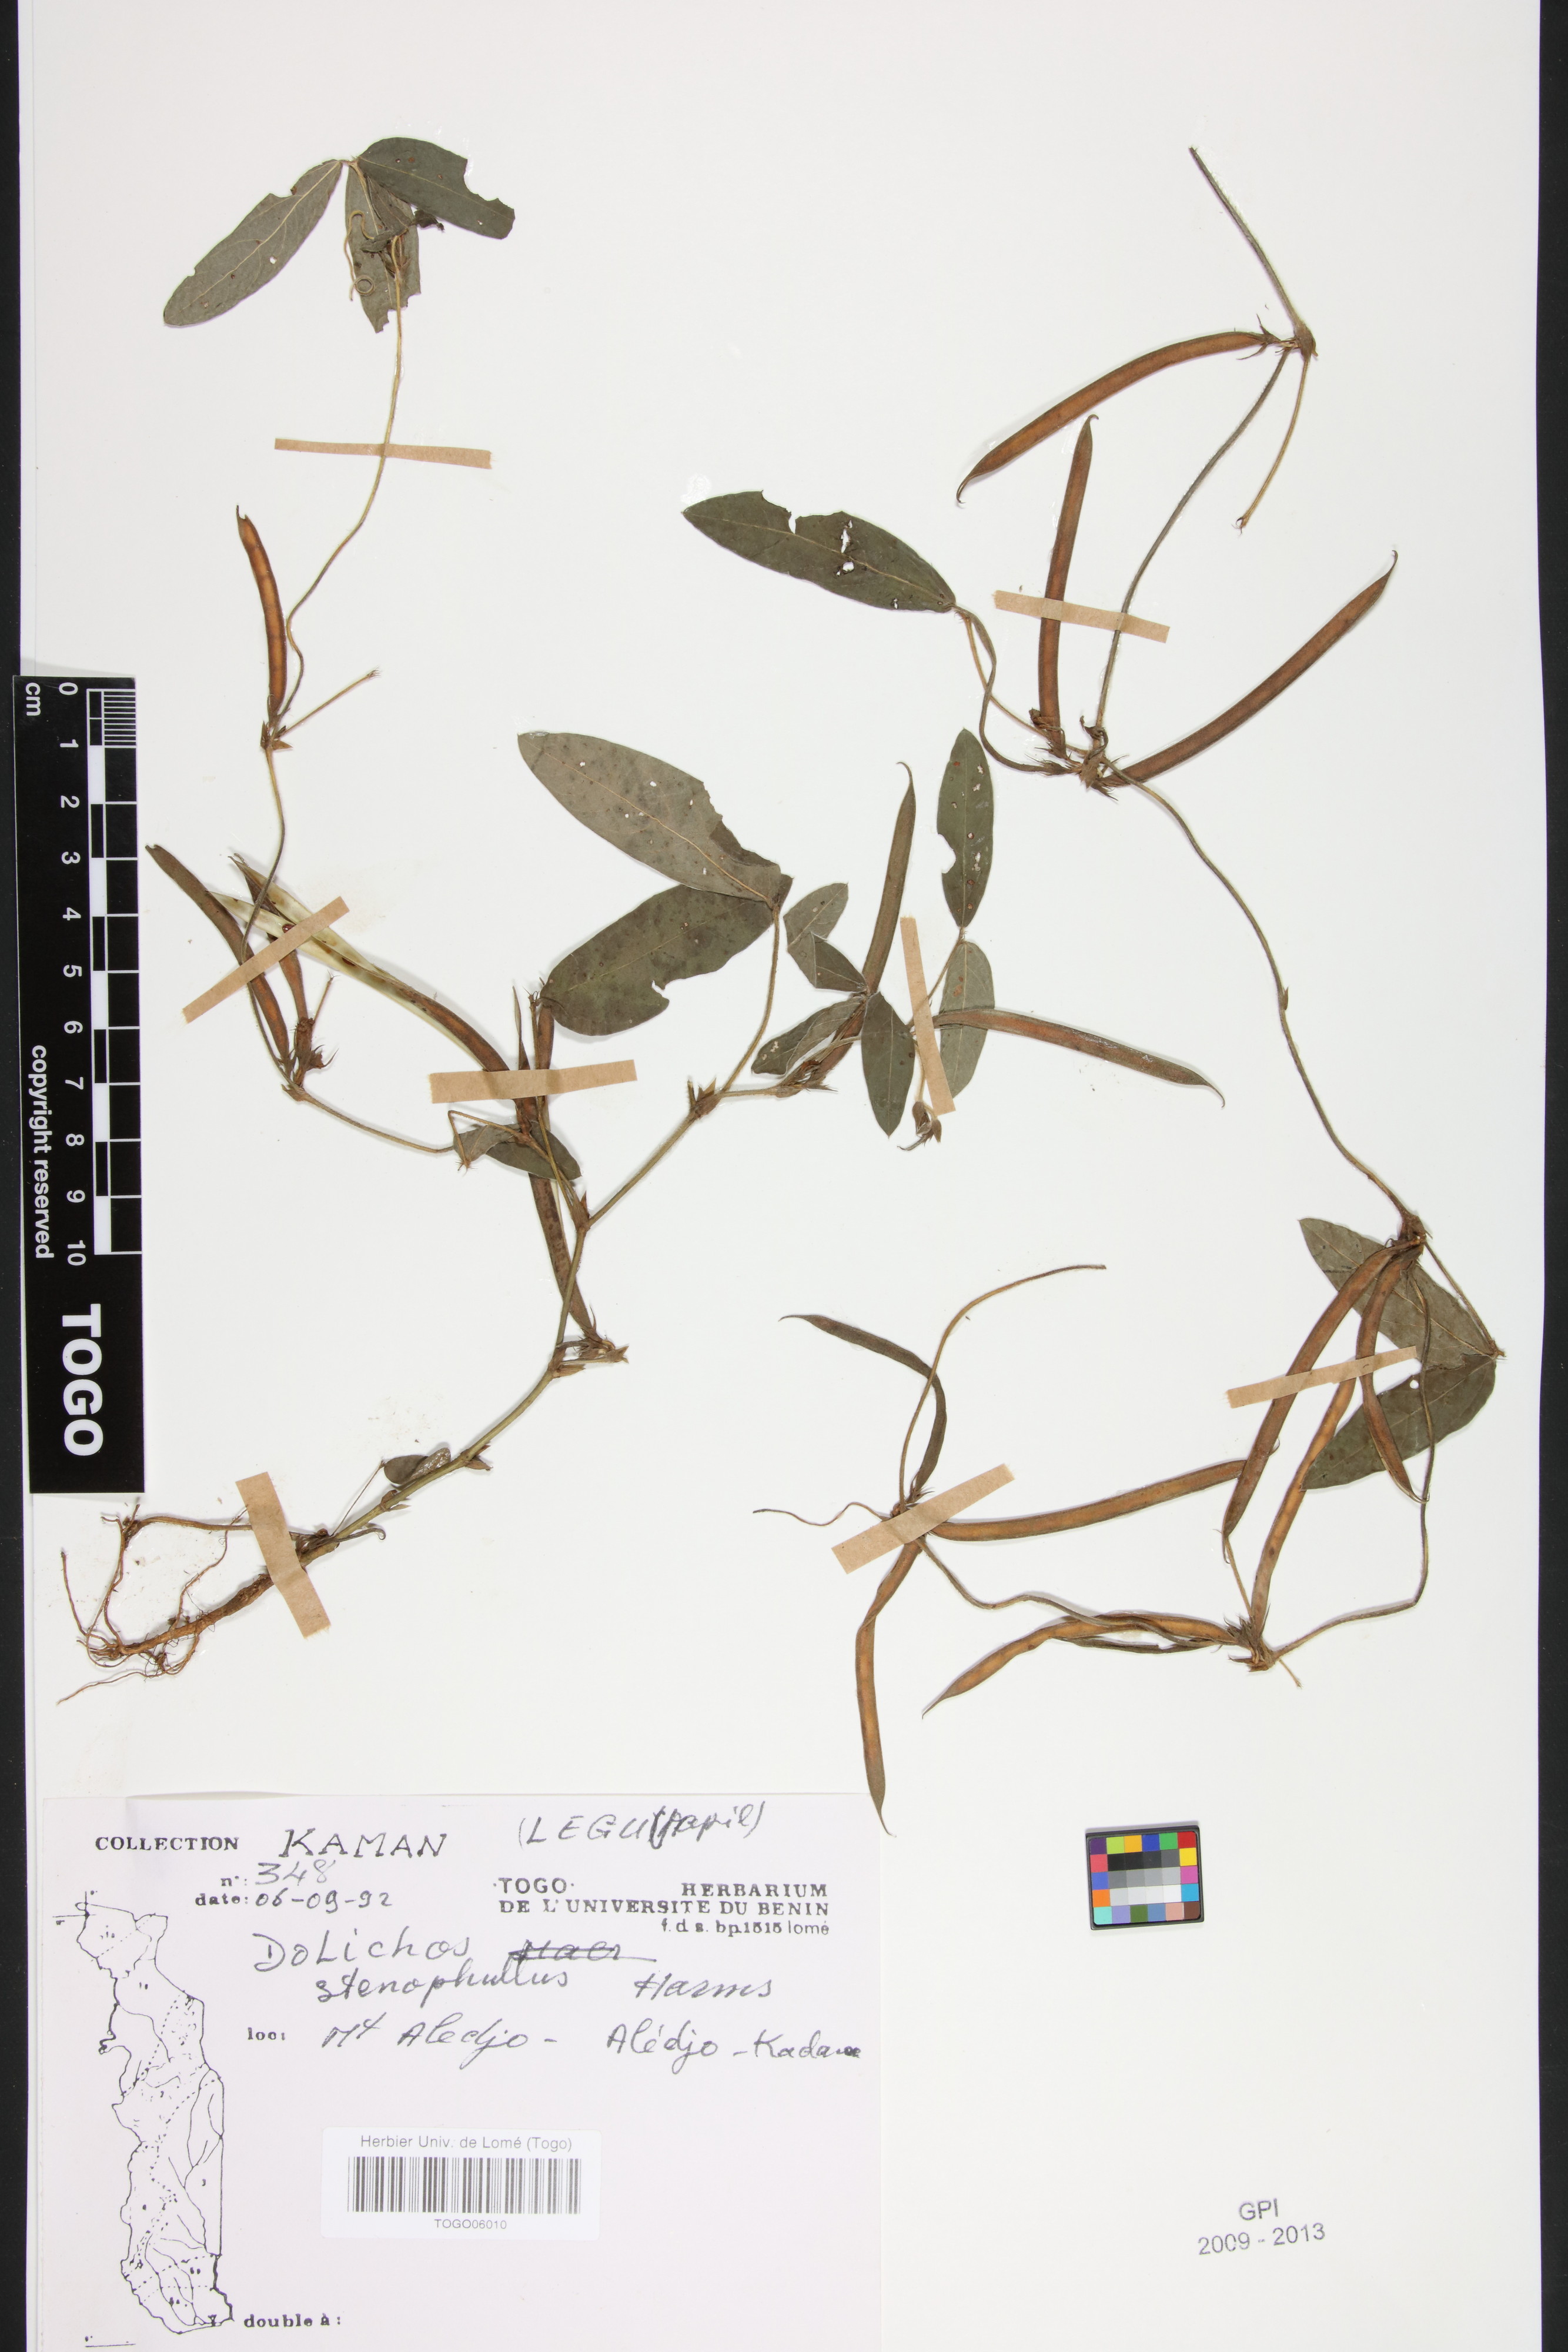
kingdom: Plantae
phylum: Tracheophyta
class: Magnoliopsida
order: Fabales
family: Fabaceae
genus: Macrotyloma
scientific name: Macrotyloma stenophyllum
